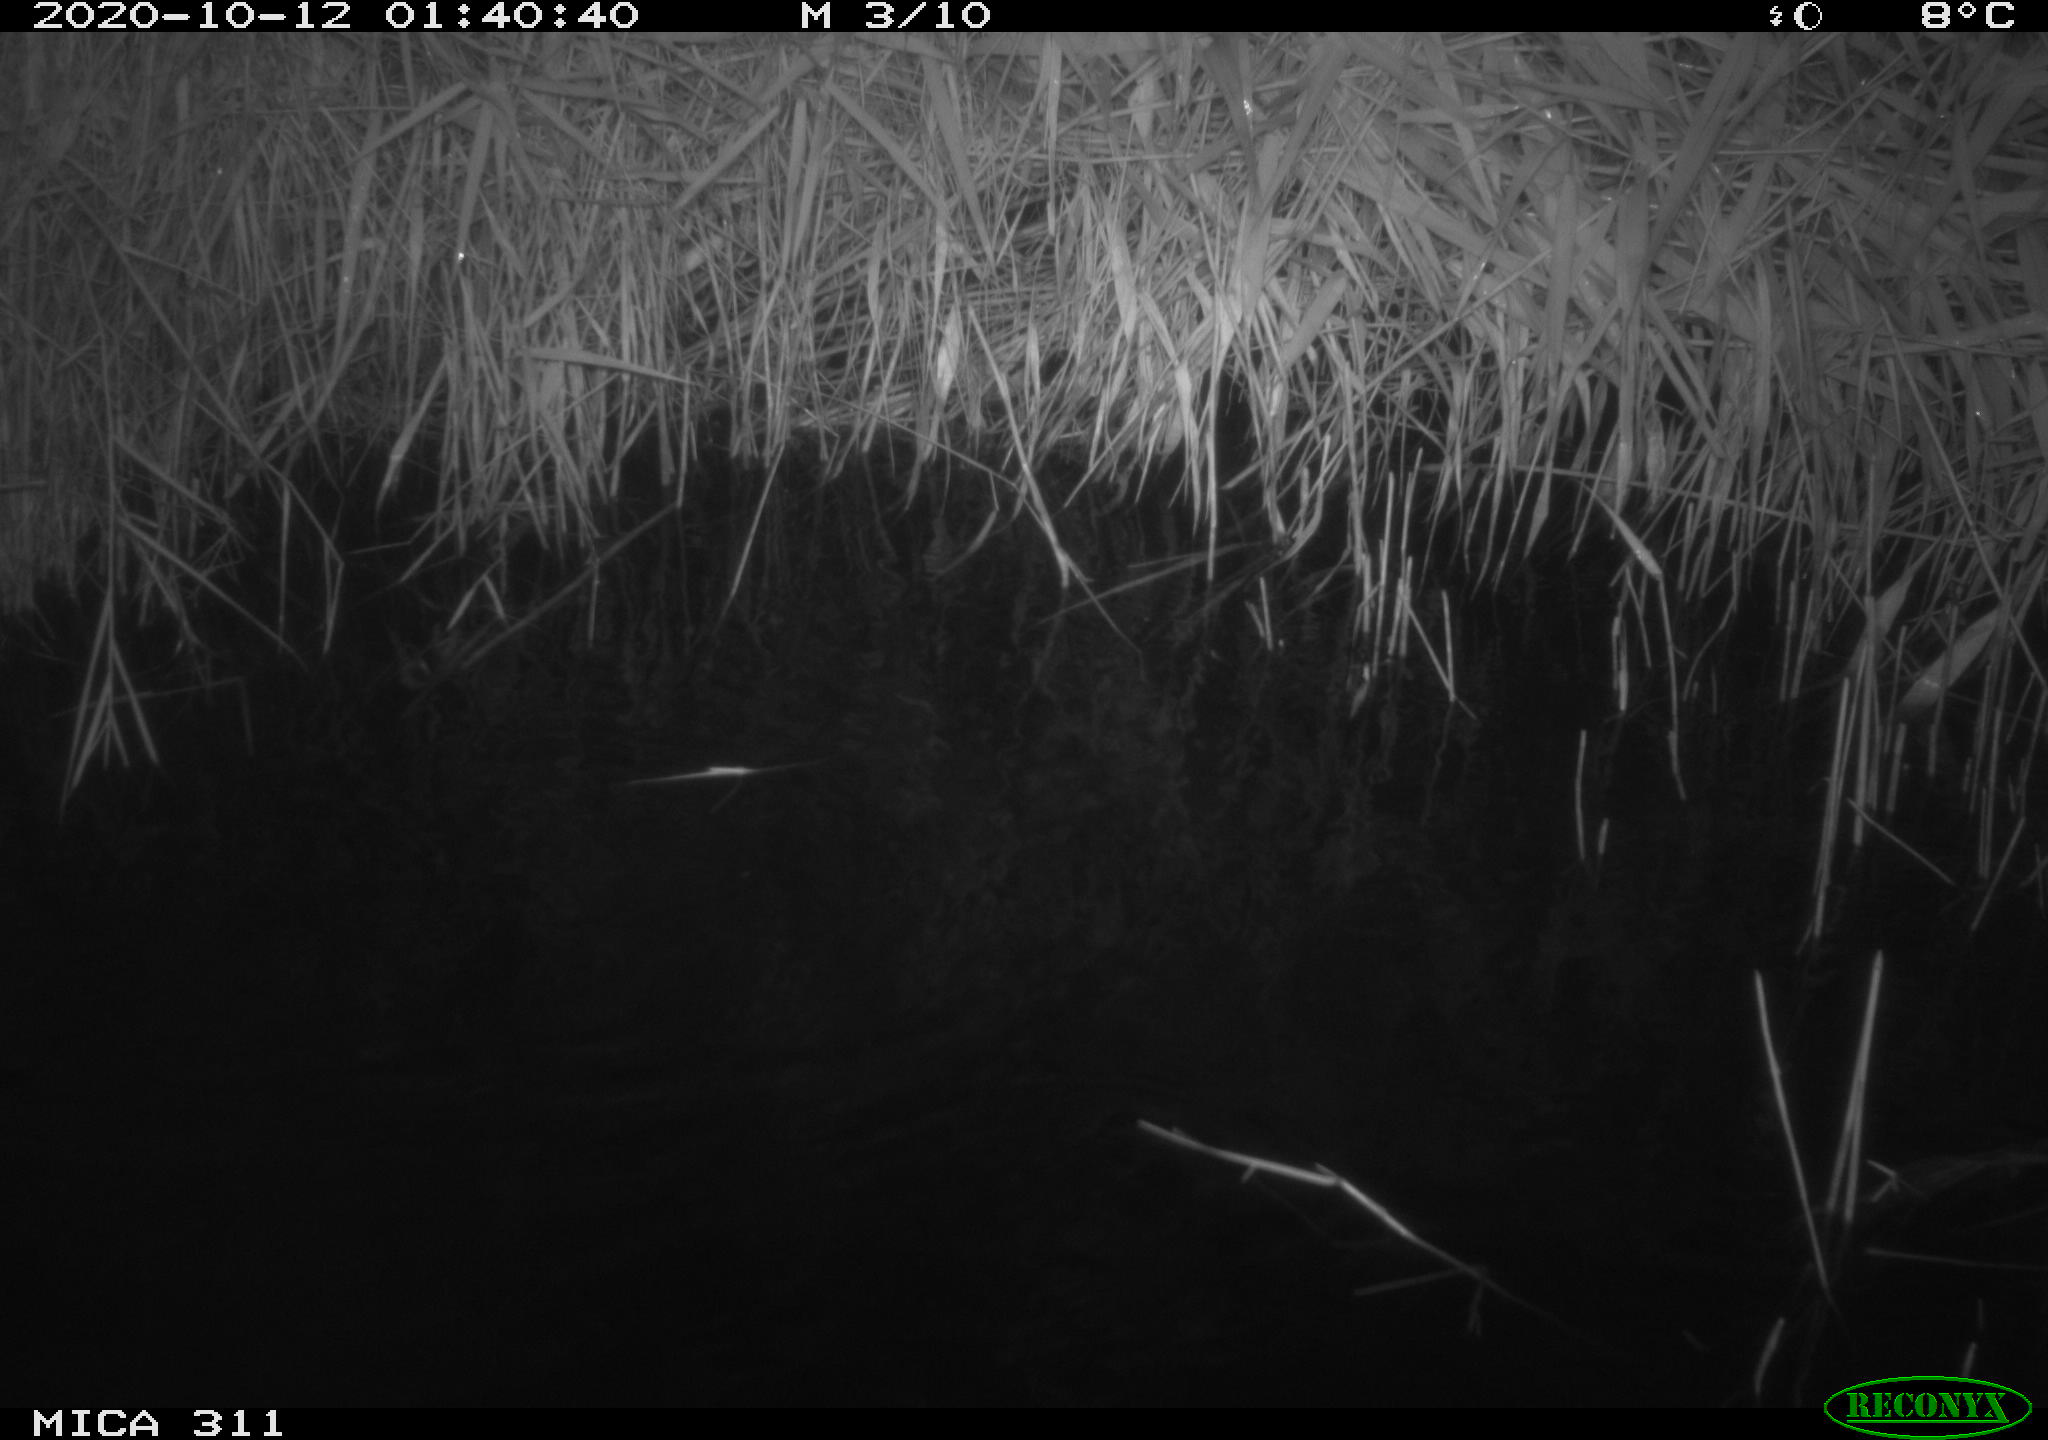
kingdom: Animalia
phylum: Chordata
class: Mammalia
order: Rodentia
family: Muridae
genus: Rattus
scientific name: Rattus norvegicus
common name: Brown rat
